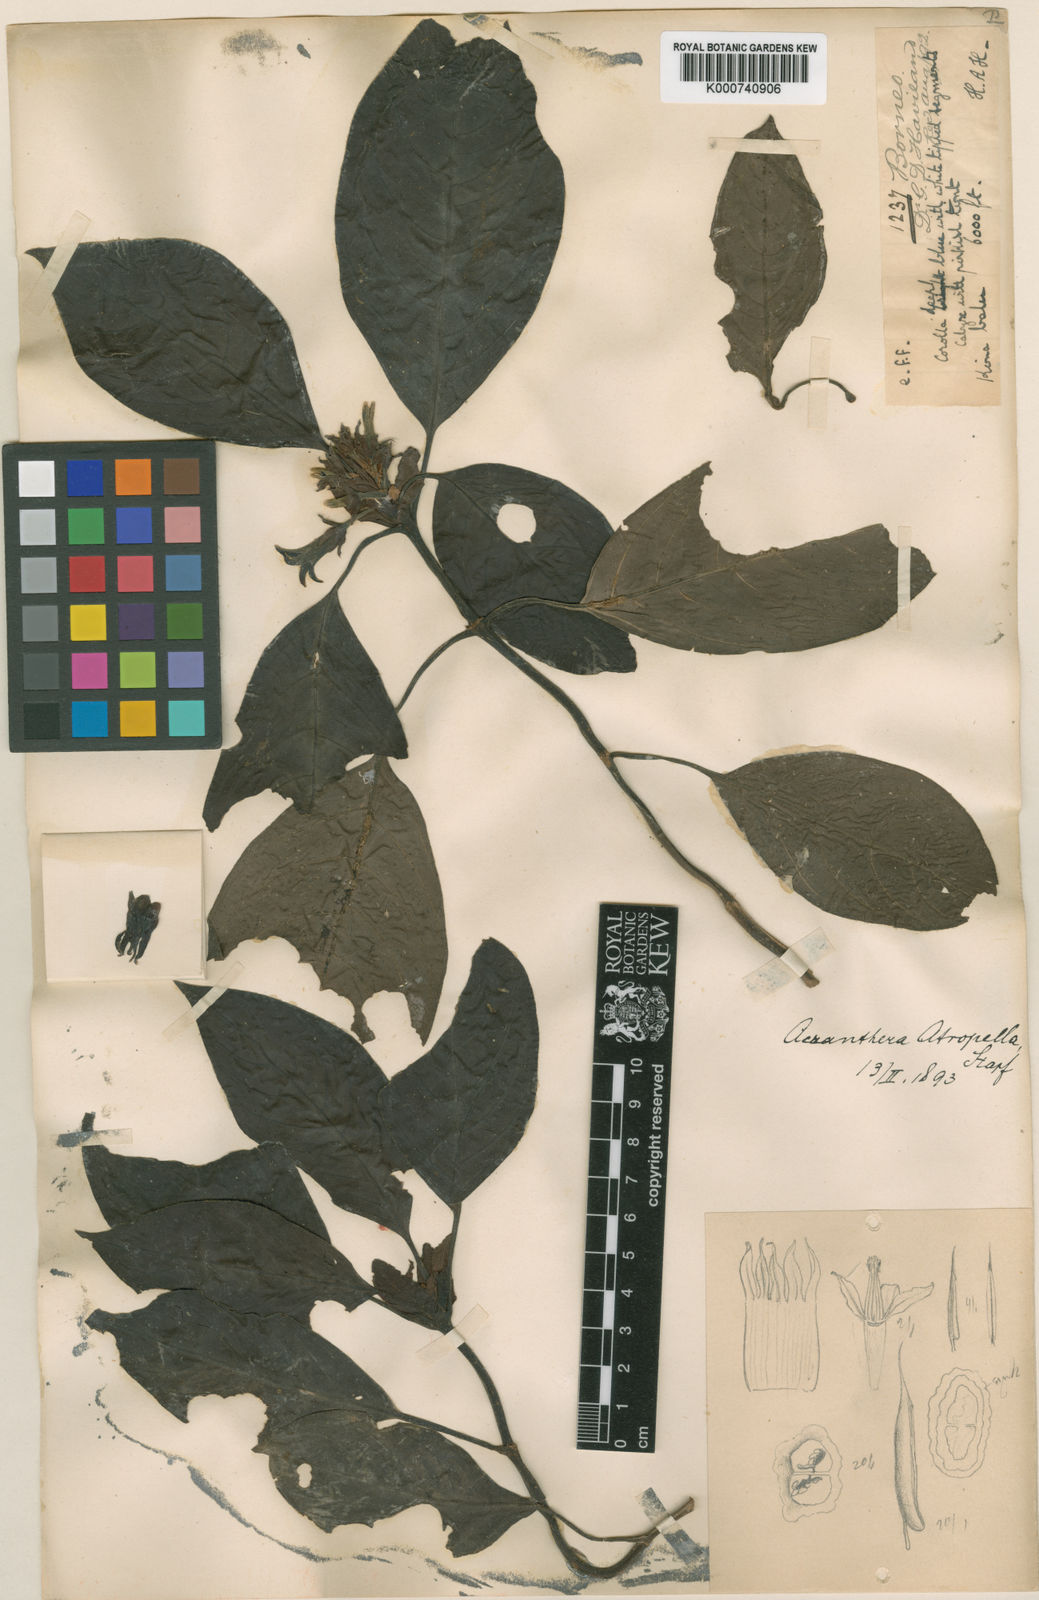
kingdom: Plantae
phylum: Tracheophyta
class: Magnoliopsida
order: Gentianales
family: Rubiaceae
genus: Acranthera
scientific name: Acranthera atropella
